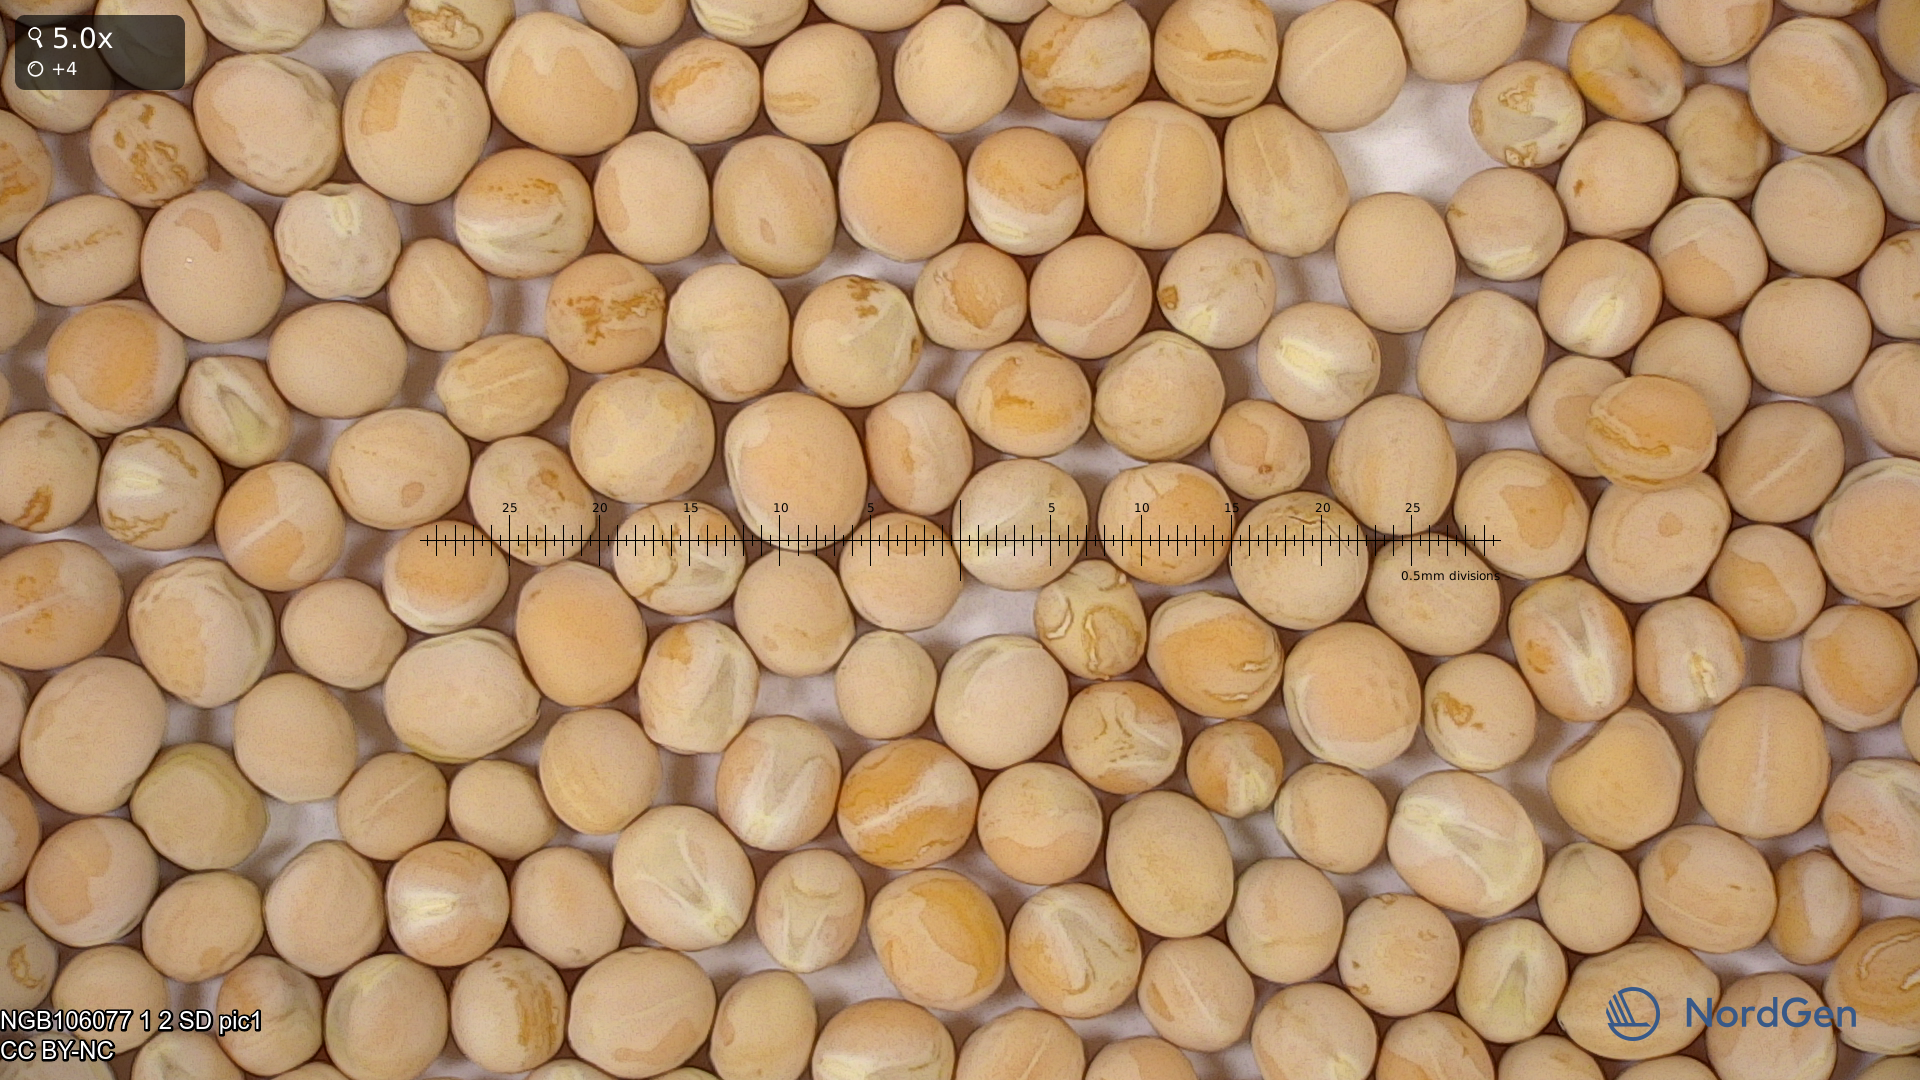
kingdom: Plantae
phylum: Tracheophyta
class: Magnoliopsida
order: Fabales
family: Fabaceae
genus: Lathyrus
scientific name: Lathyrus oleraceus
